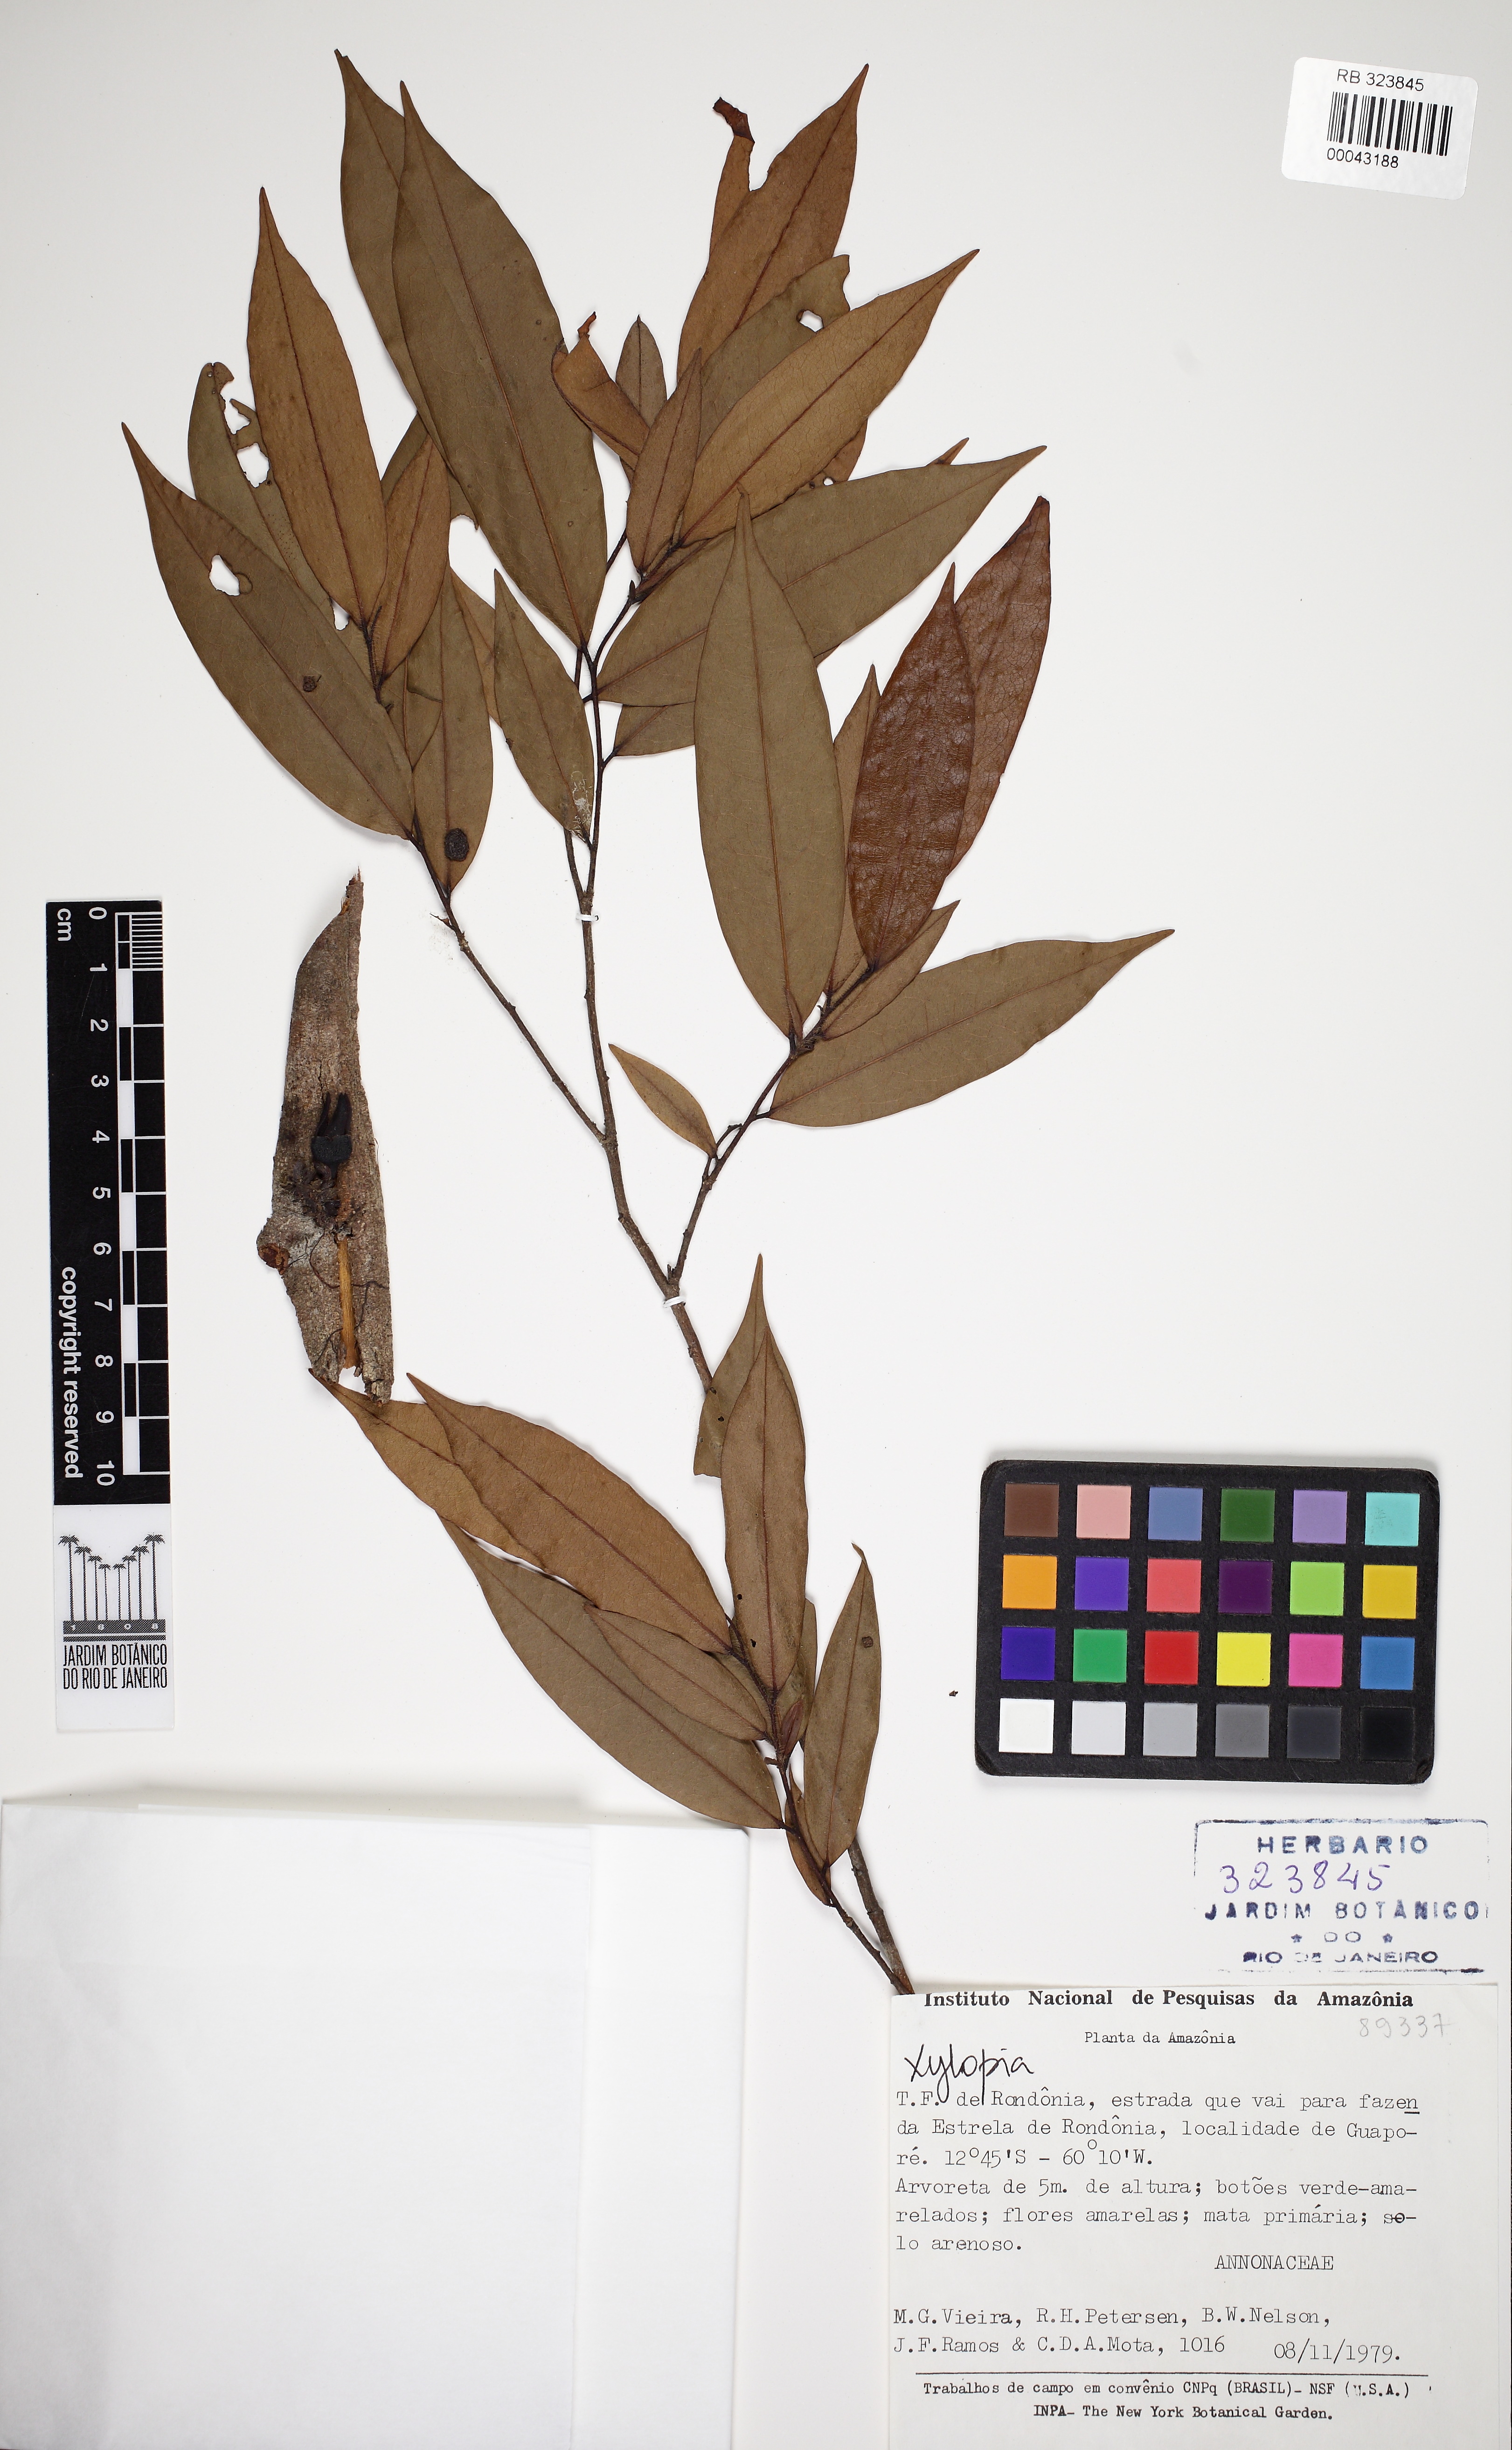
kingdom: Plantae
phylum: Tracheophyta
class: Magnoliopsida
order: Magnoliales
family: Annonaceae
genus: Xylopia
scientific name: Xylopia benthamii
